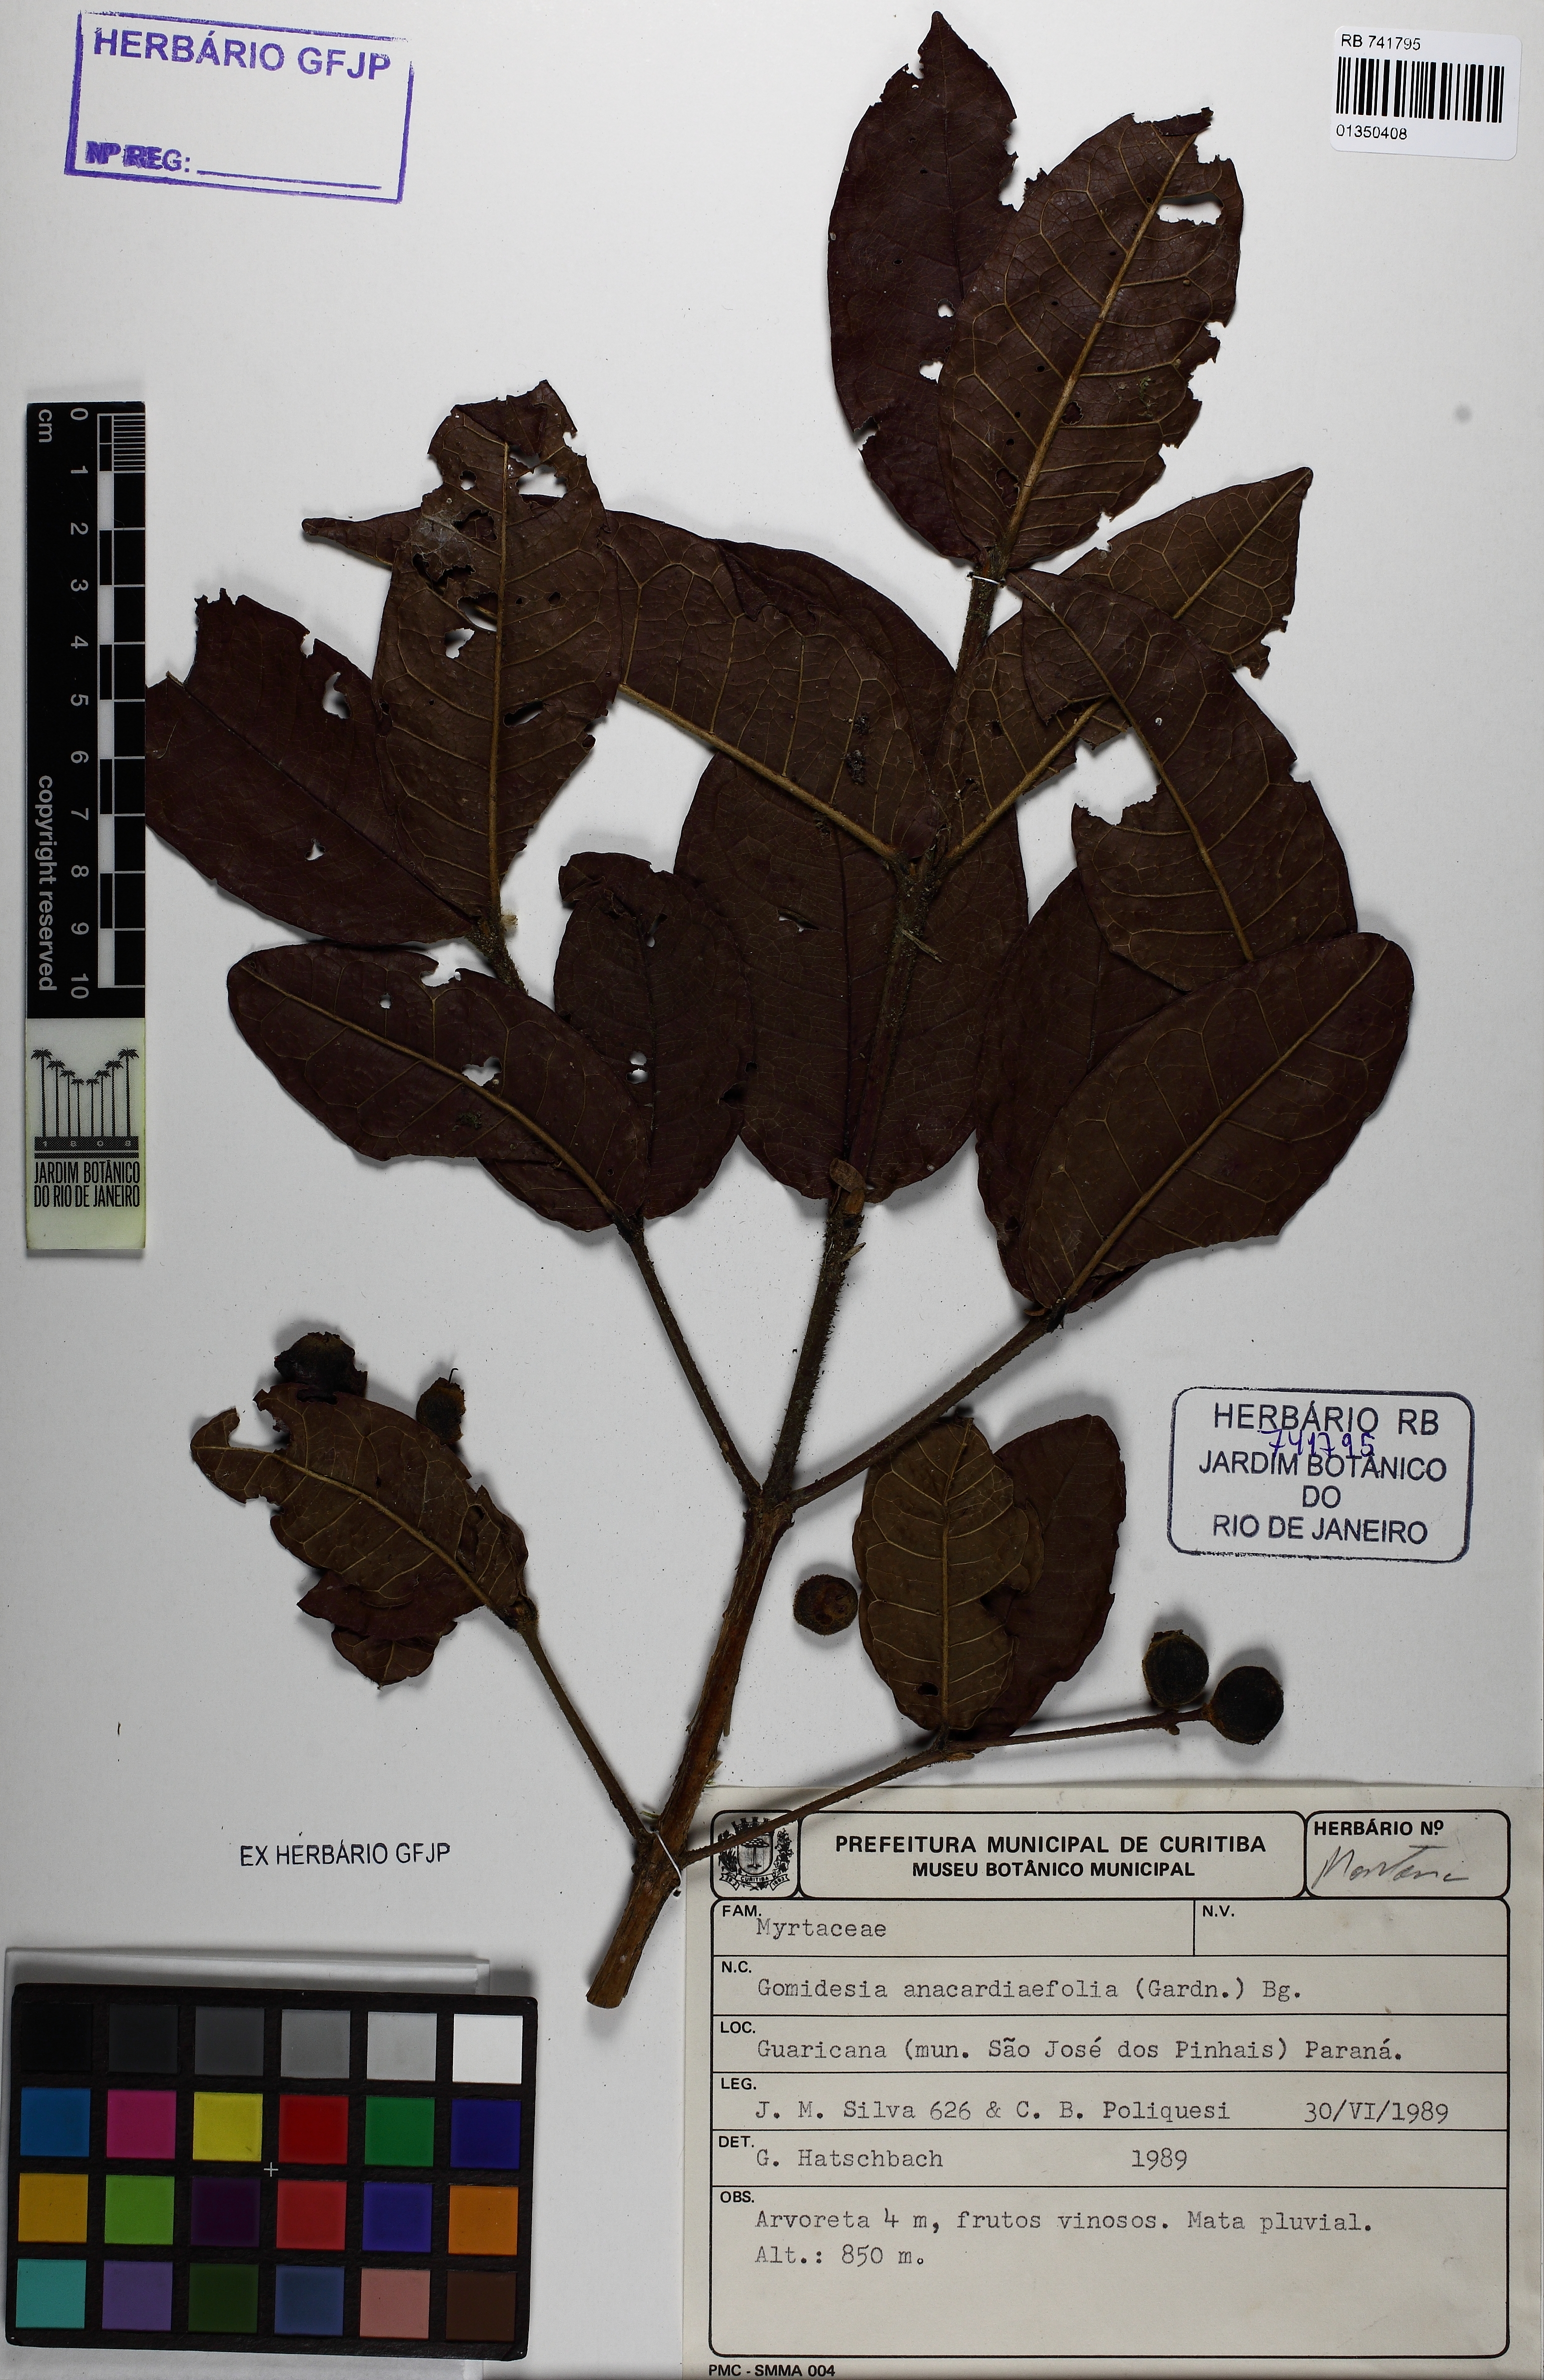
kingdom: Plantae
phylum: Tracheophyta
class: Magnoliopsida
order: Myrtales
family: Myrtaceae
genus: Myrcia
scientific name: Myrcia anacardiifolia
